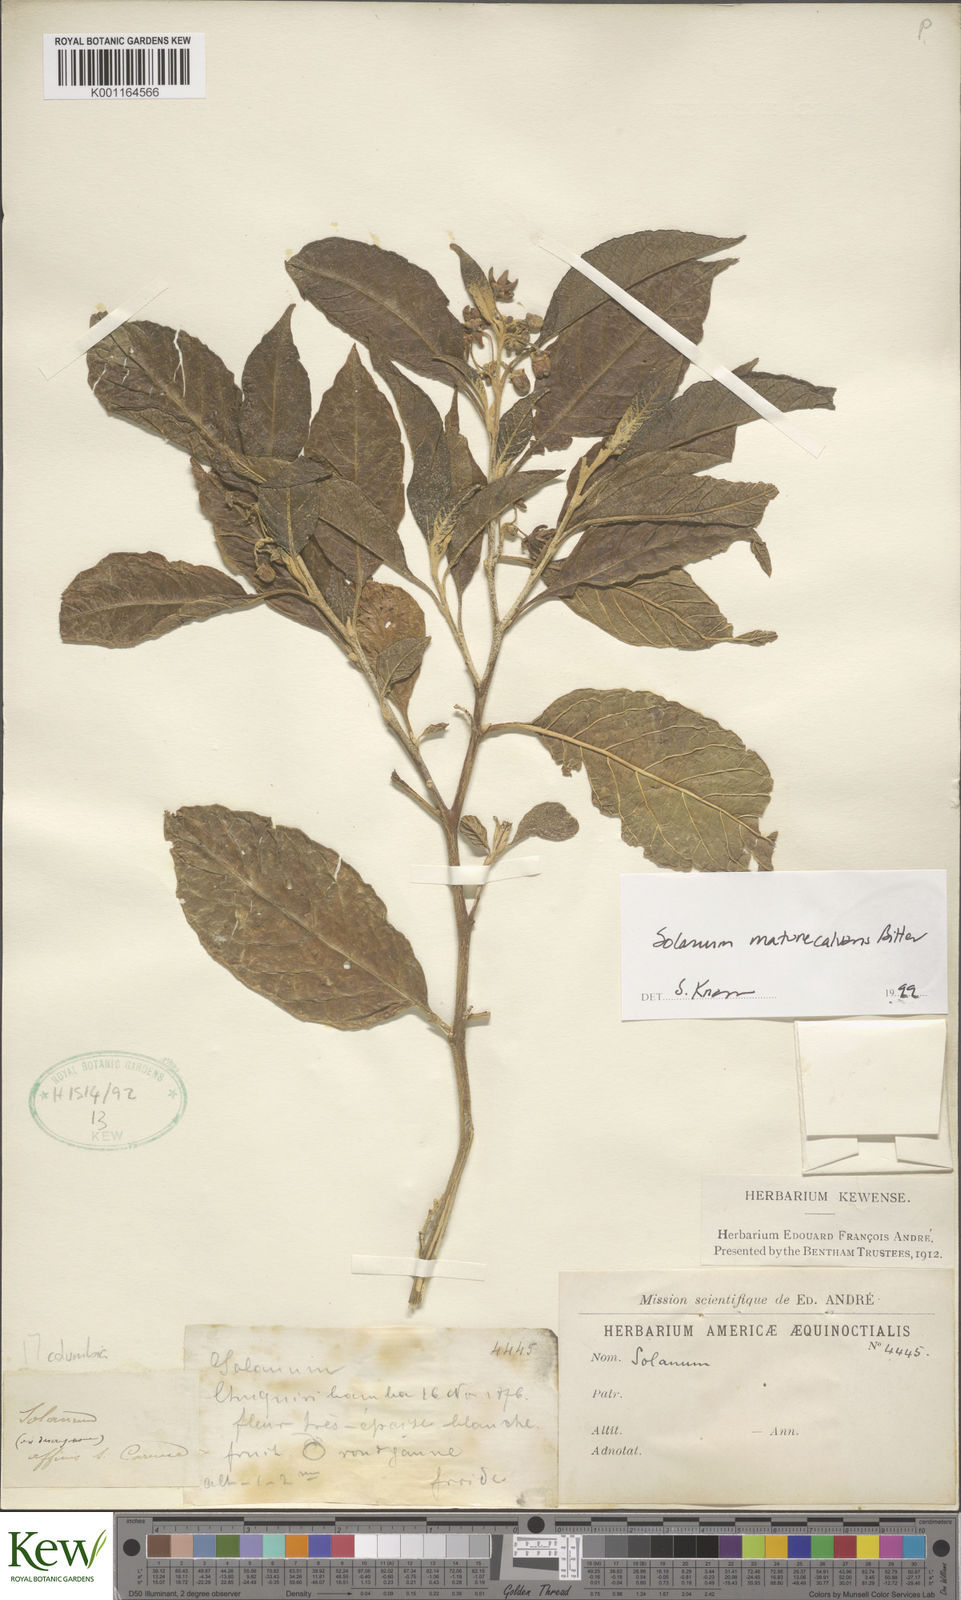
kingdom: Plantae
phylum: Tracheophyta
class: Magnoliopsida
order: Solanales
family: Solanaceae
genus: Solanum
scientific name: Solanum maturecalvans
